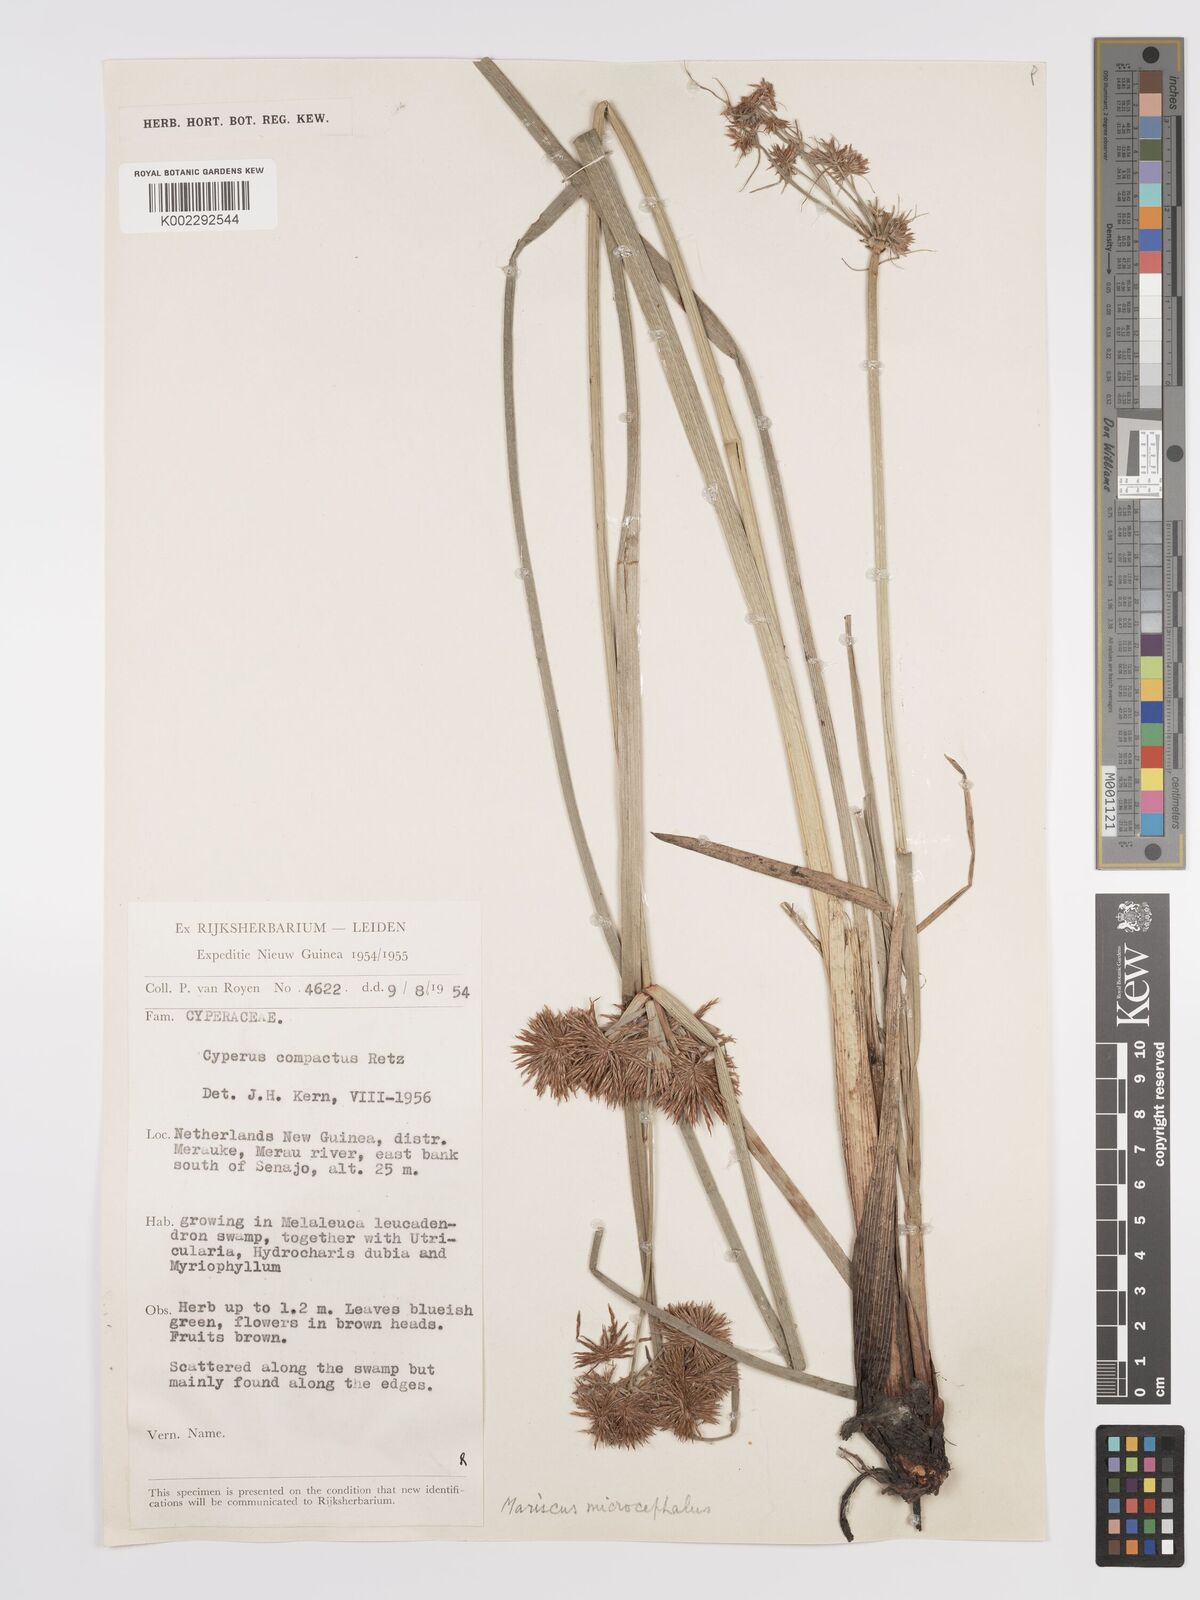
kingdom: Plantae
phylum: Tracheophyta
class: Liliopsida
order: Poales
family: Cyperaceae
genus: Cyperus
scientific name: Cyperus compactus
